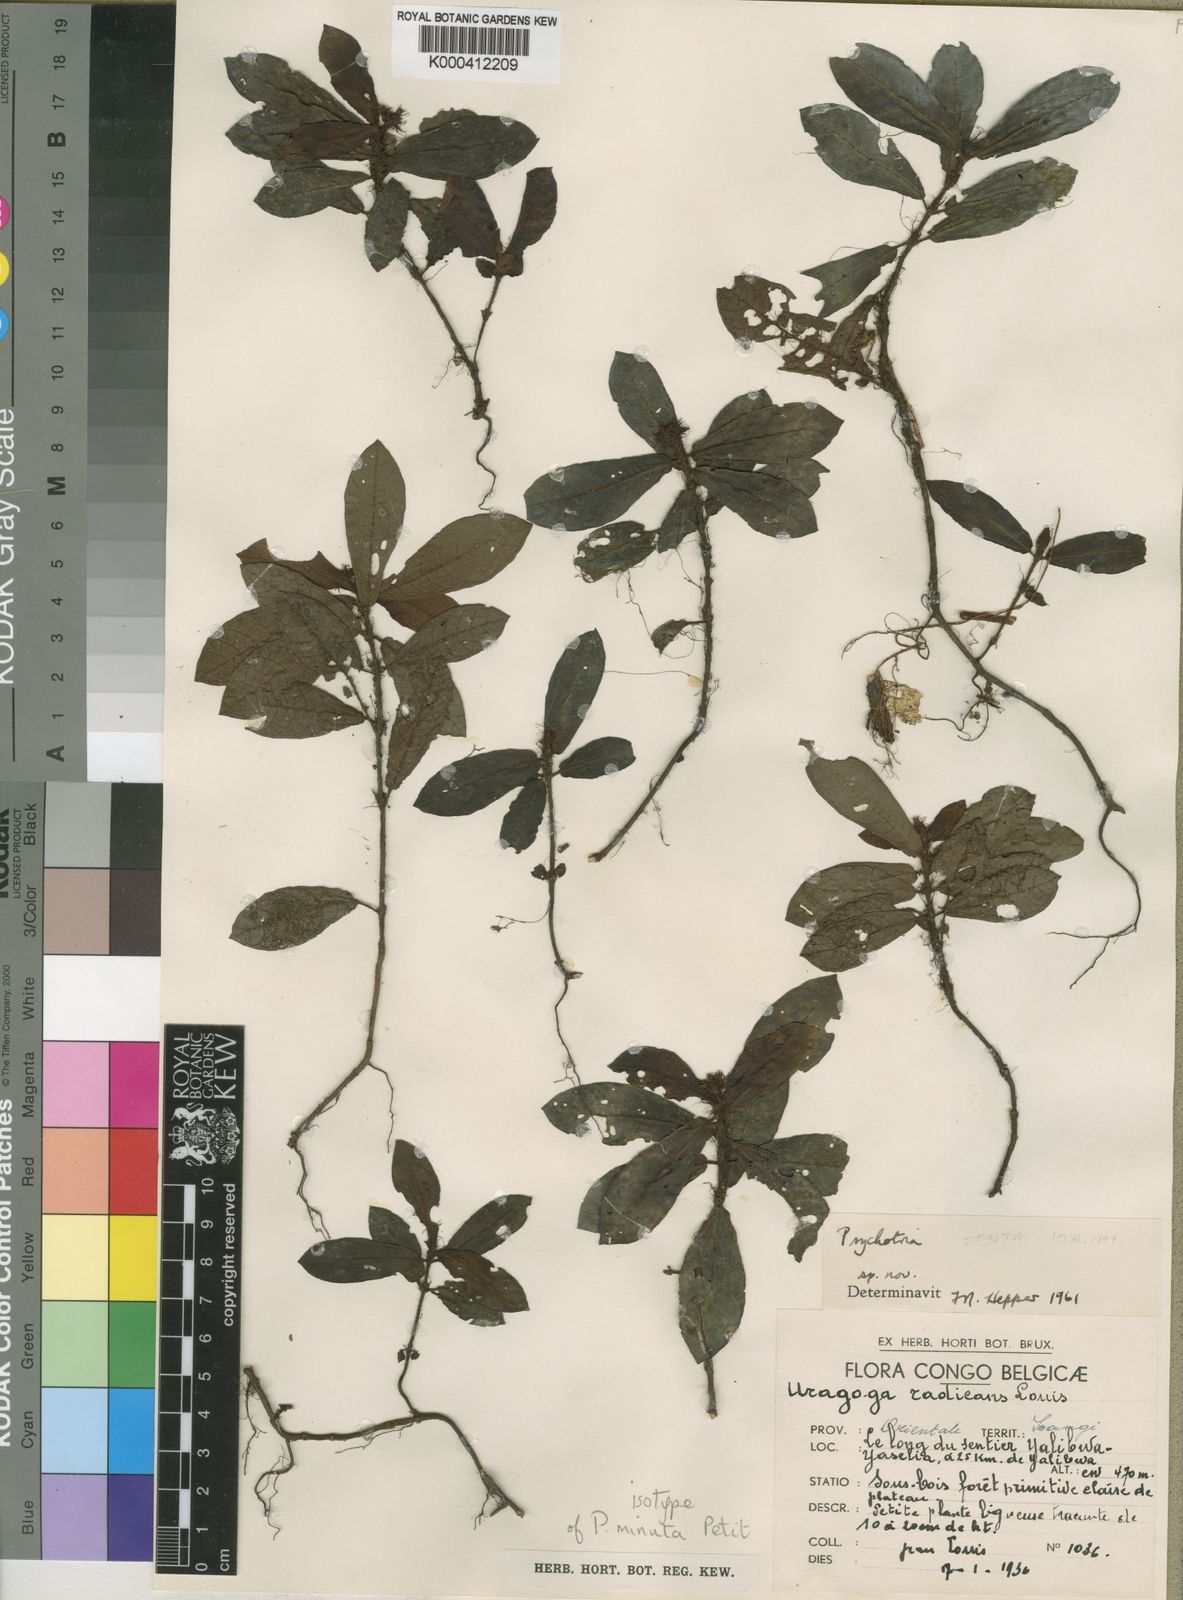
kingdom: Plantae
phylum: Tracheophyta
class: Magnoliopsida
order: Gentianales
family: Rubiaceae
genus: Psychotria
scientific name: Psychotria minuta
